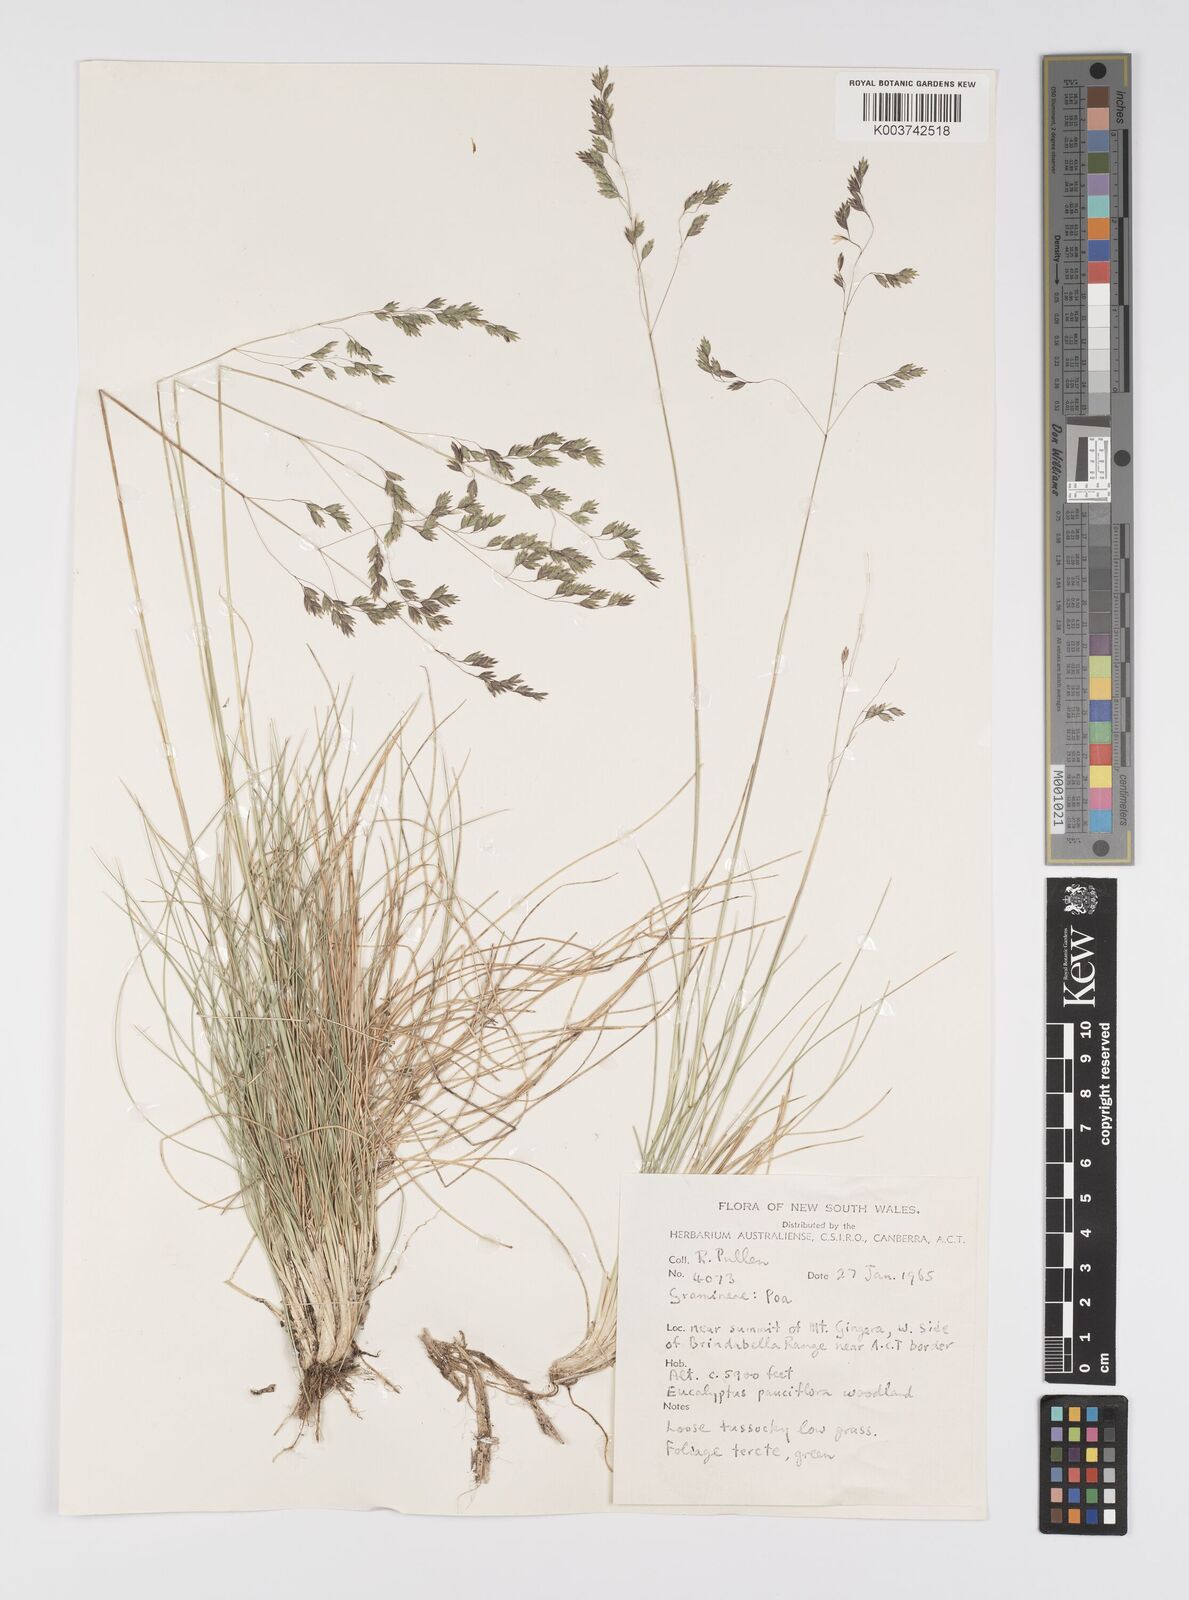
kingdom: Plantae
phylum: Tracheophyta
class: Liliopsida
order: Poales
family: Poaceae
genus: Poa
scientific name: Poa
